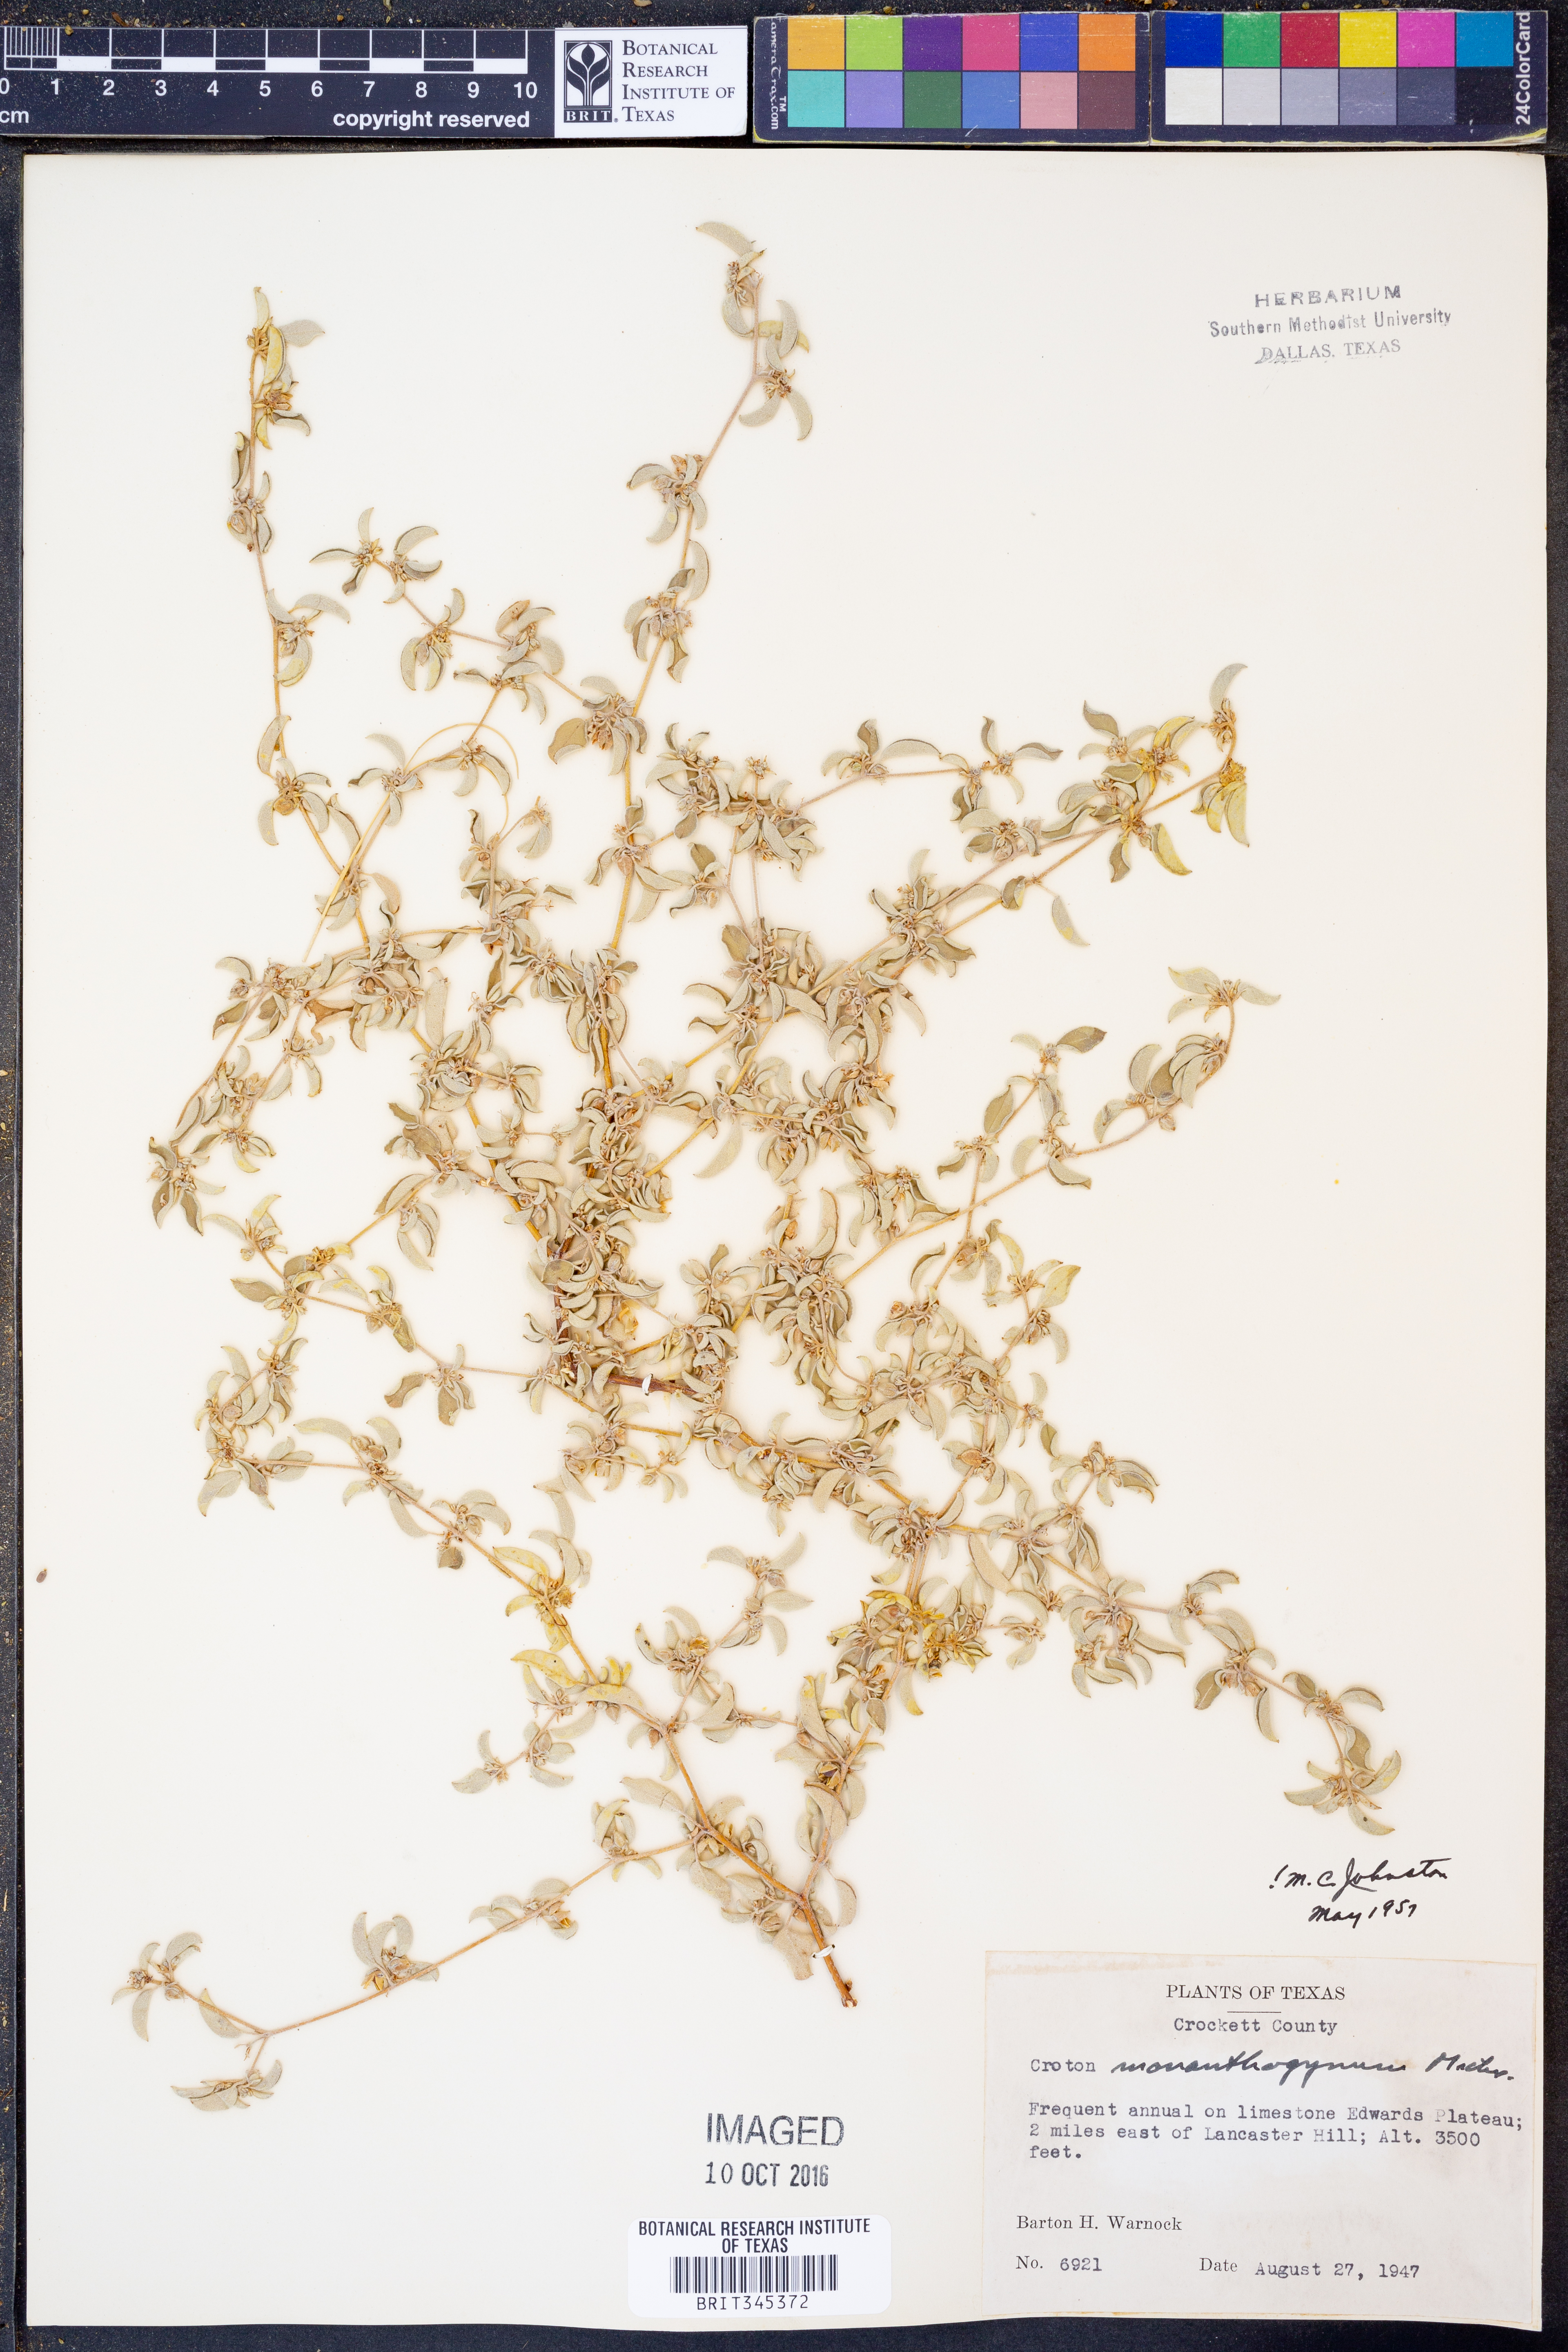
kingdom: Plantae
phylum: Tracheophyta
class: Magnoliopsida
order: Malpighiales
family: Euphorbiaceae
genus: Croton
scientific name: Croton monanthogynus
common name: One-seed croton
